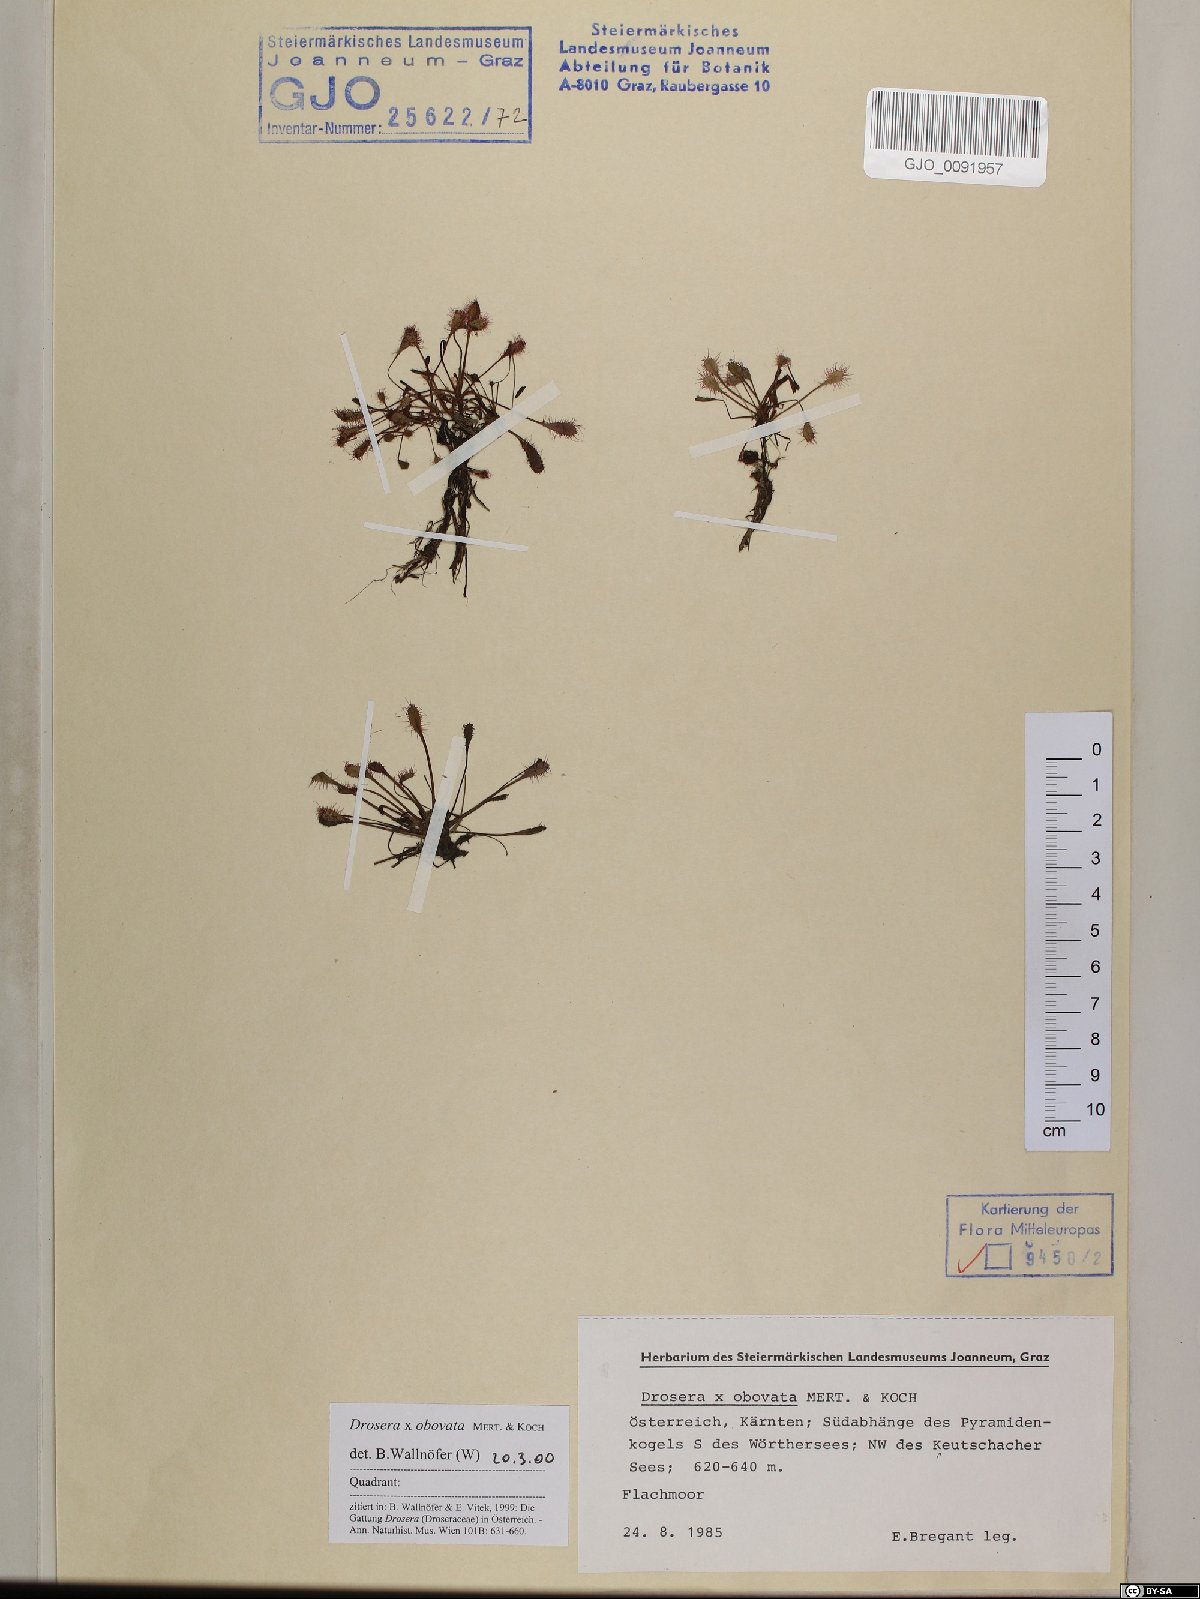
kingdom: Plantae
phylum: Tracheophyta
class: Magnoliopsida
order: Caryophyllales
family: Droseraceae
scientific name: Droseraceae
